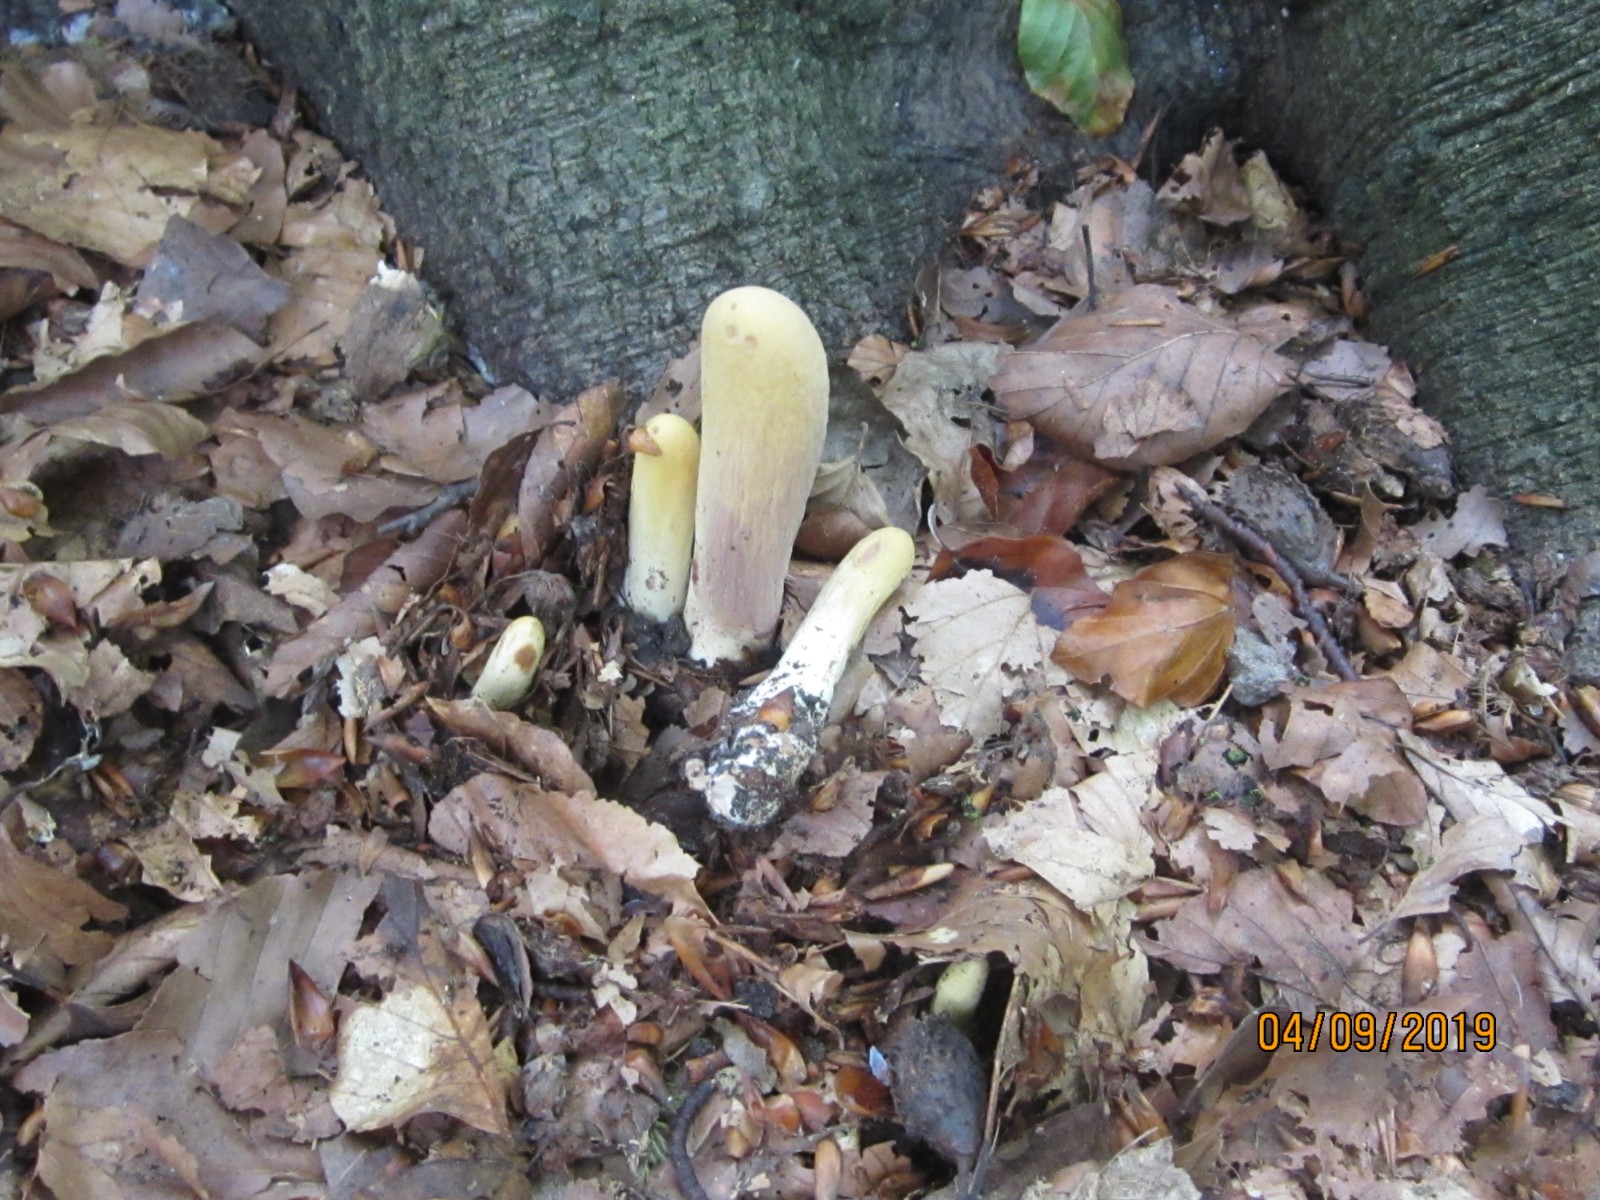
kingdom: Fungi
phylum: Basidiomycota
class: Agaricomycetes
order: Gomphales
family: Clavariadelphaceae
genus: Clavariadelphus
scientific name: Clavariadelphus pistillaris
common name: herkules-kæmpekølle
